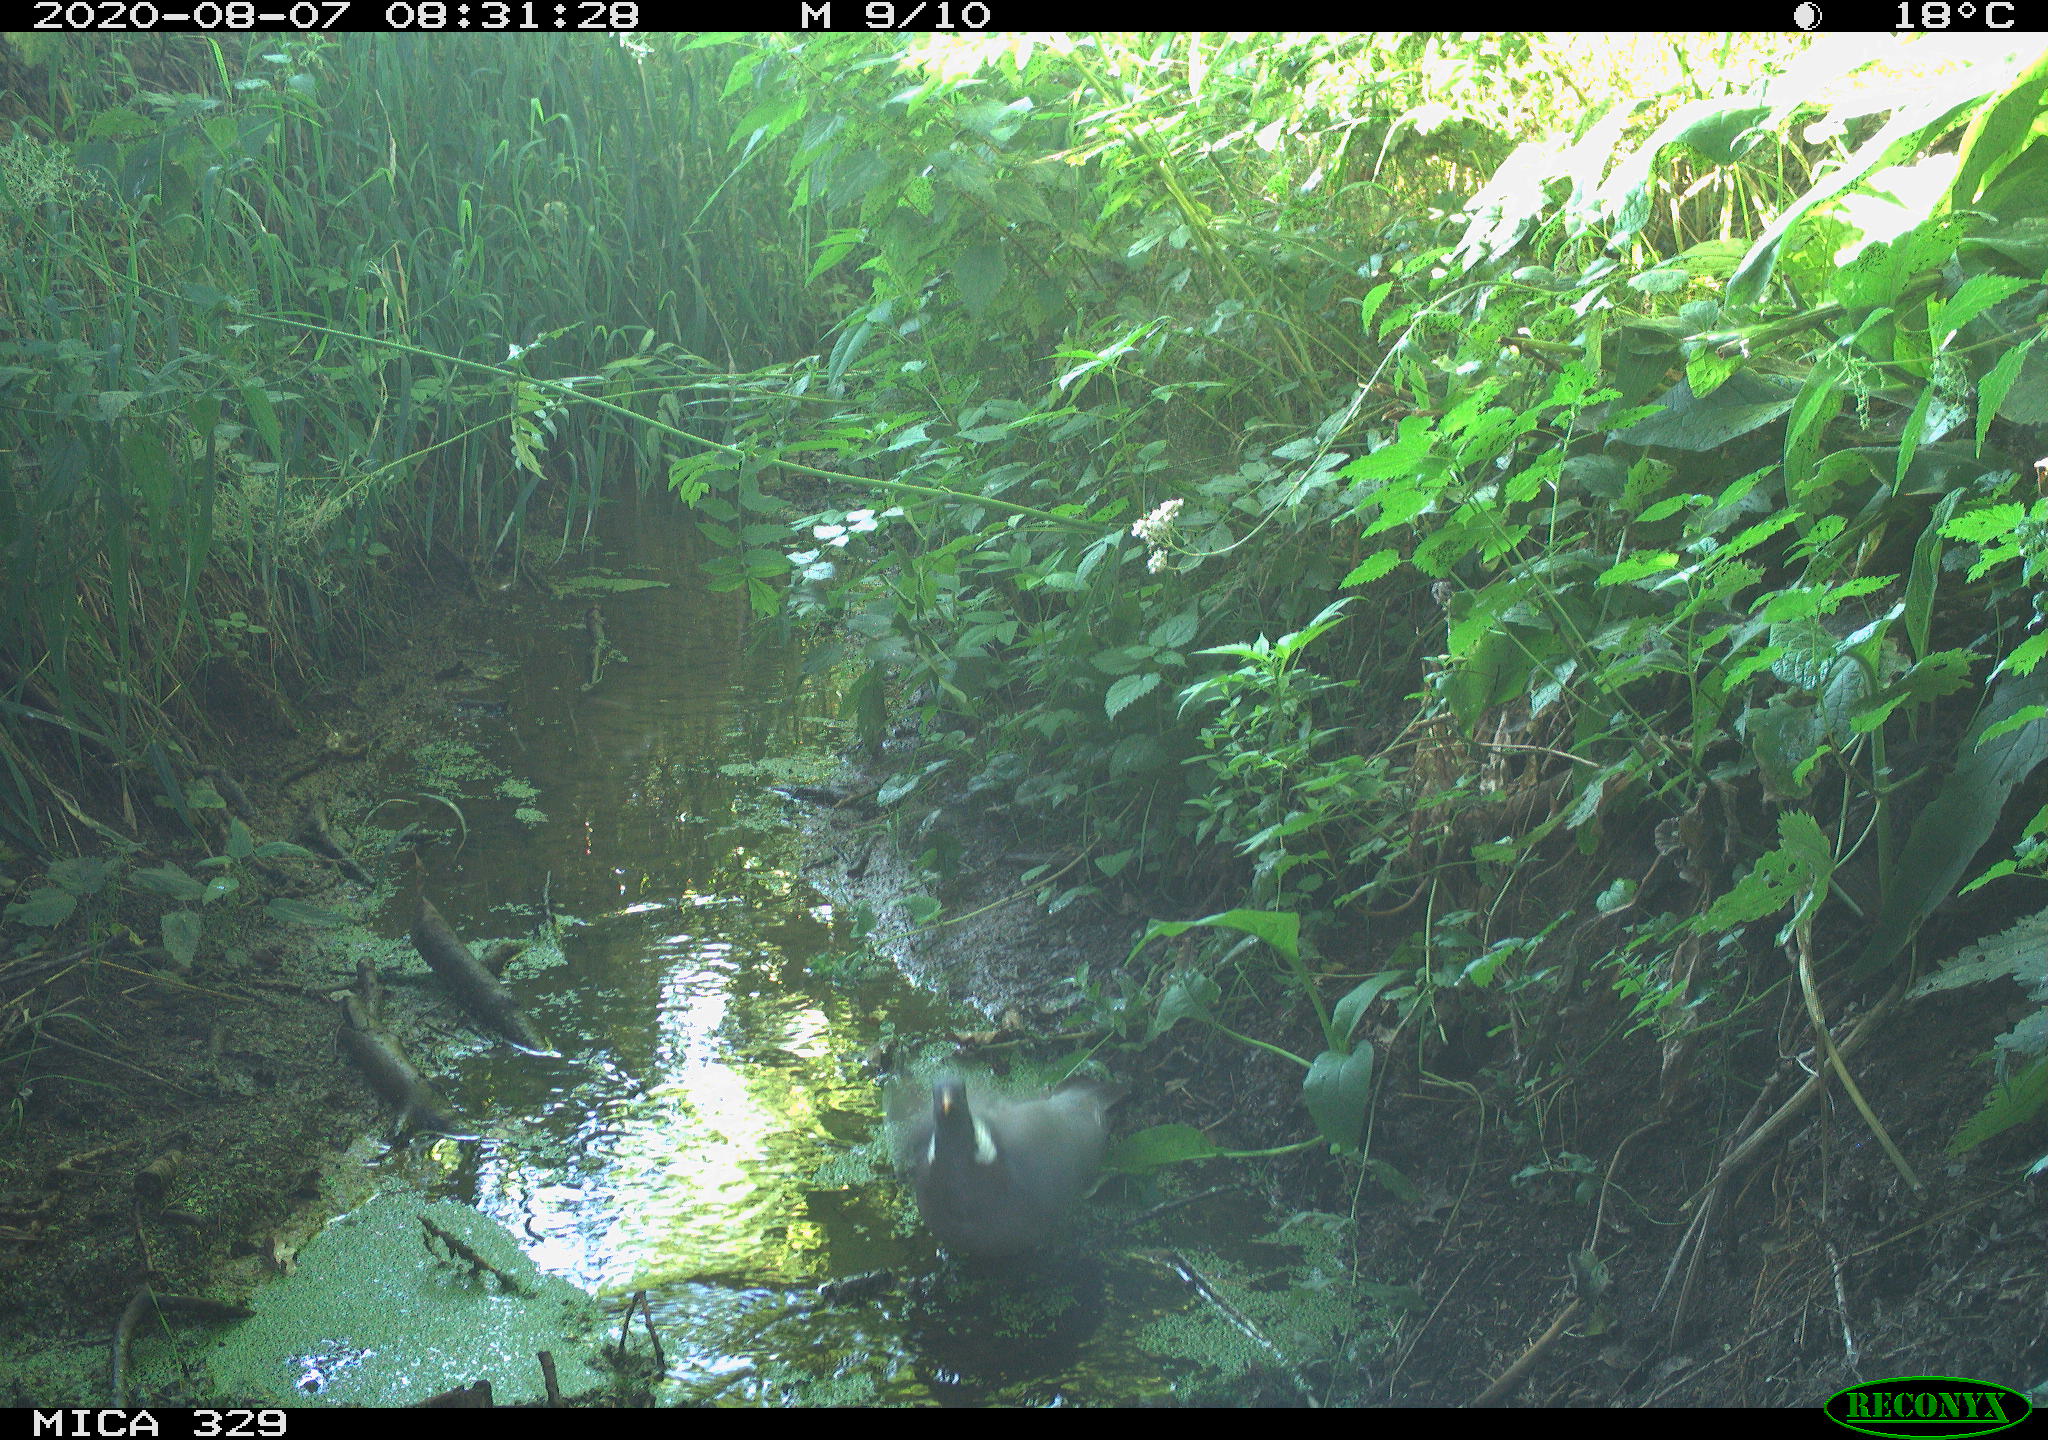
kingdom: Animalia
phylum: Chordata
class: Aves
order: Columbiformes
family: Columbidae
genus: Columba
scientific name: Columba palumbus
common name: Common wood pigeon
